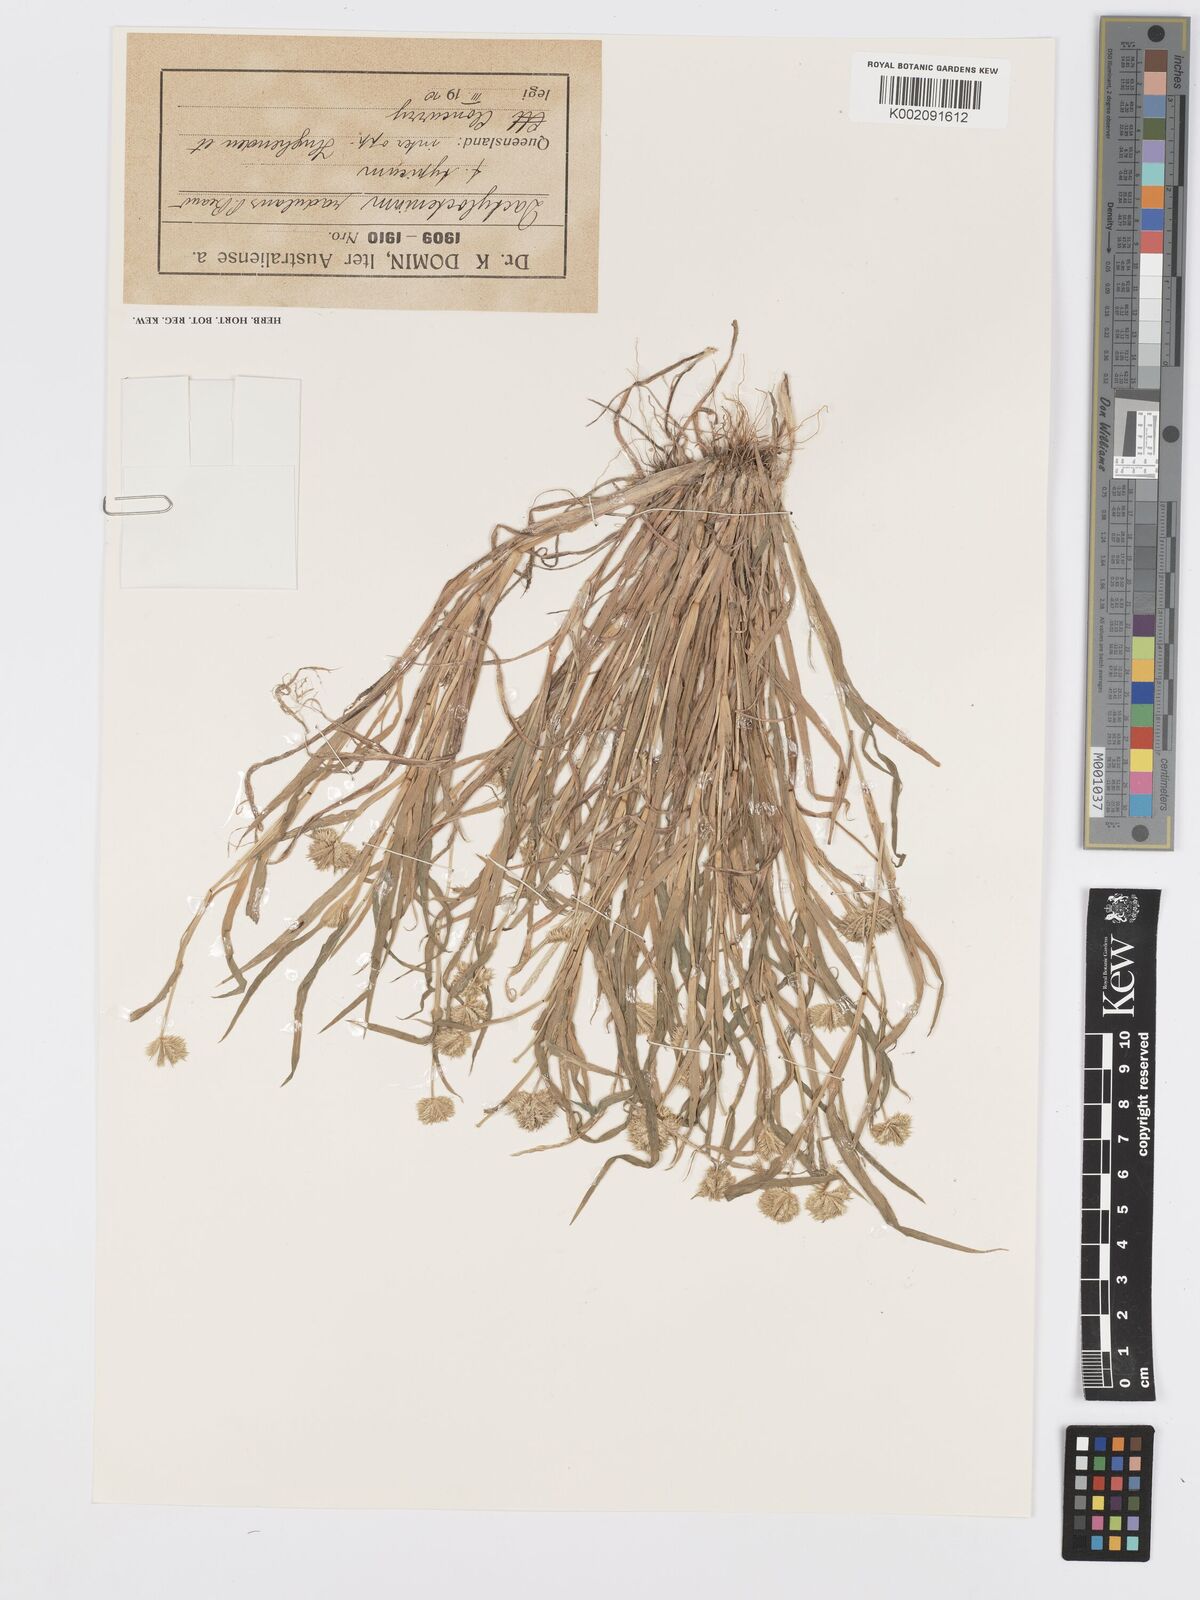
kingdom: Plantae
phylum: Tracheophyta
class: Liliopsida
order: Poales
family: Poaceae
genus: Dactyloctenium
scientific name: Dactyloctenium radulans
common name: Button-grass
